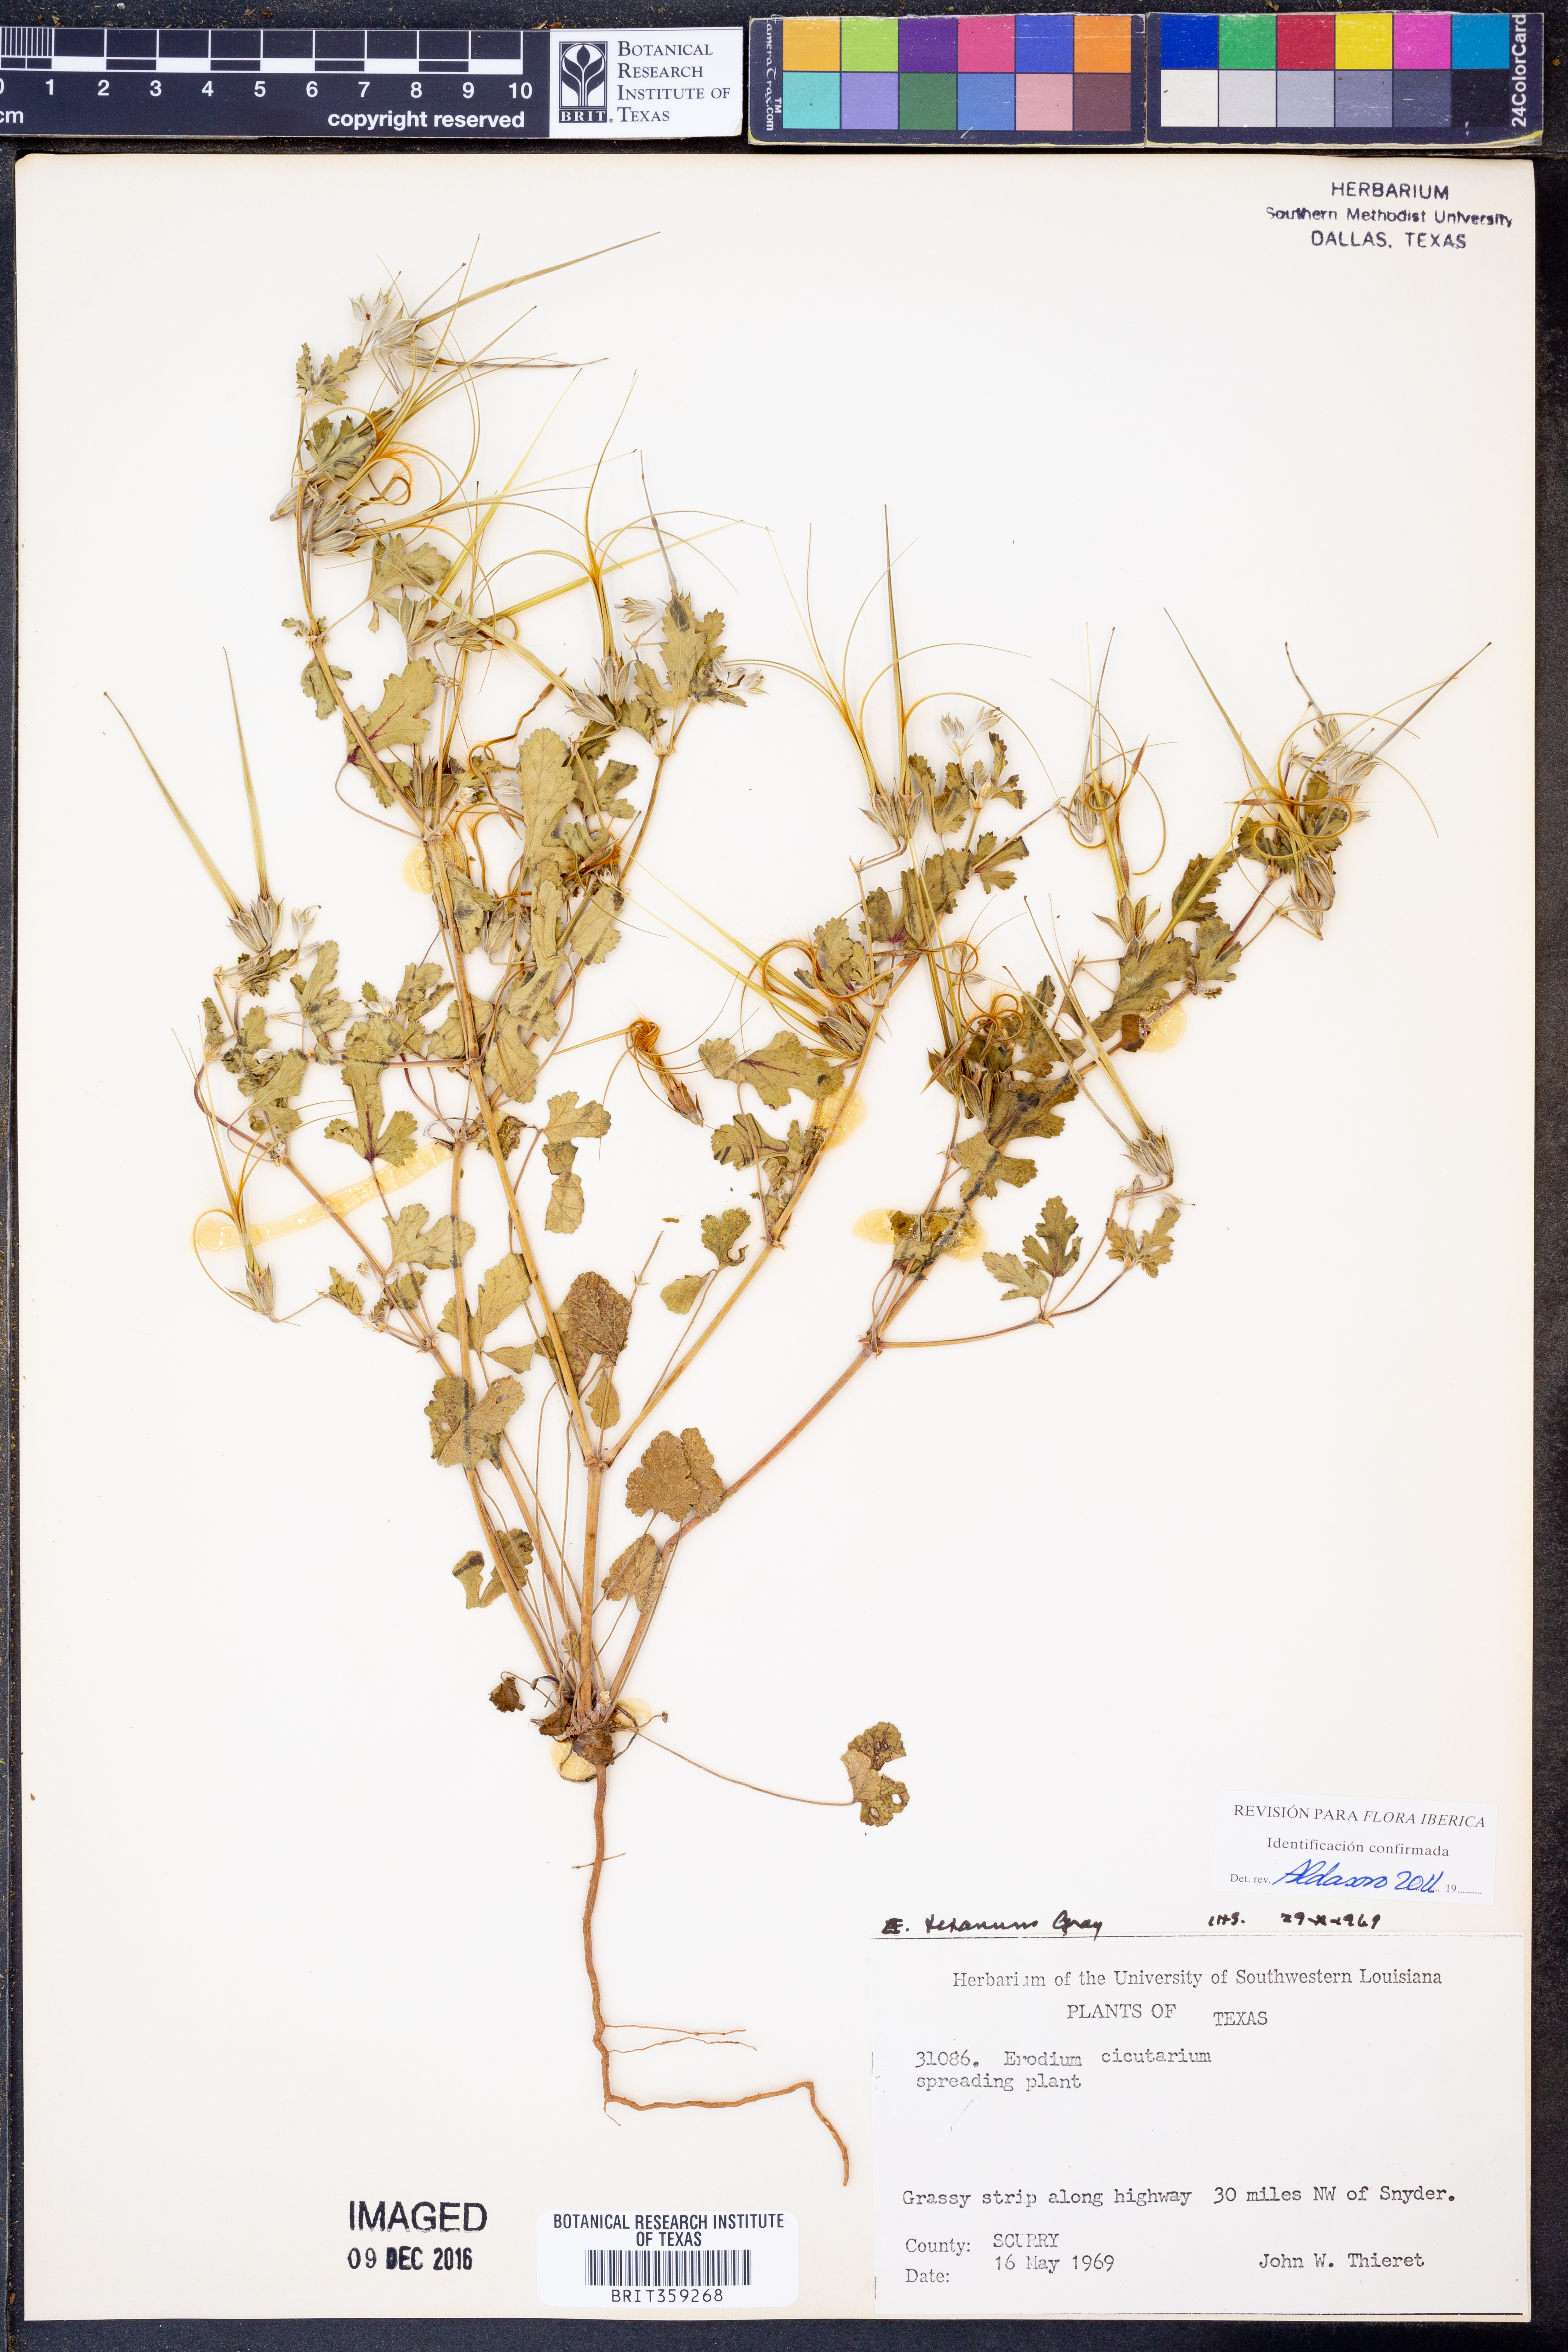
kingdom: Plantae
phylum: Tracheophyta
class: Magnoliopsida
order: Geraniales
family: Geraniaceae
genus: Erodium
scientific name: Erodium texanum
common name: Texas stork's-bill
